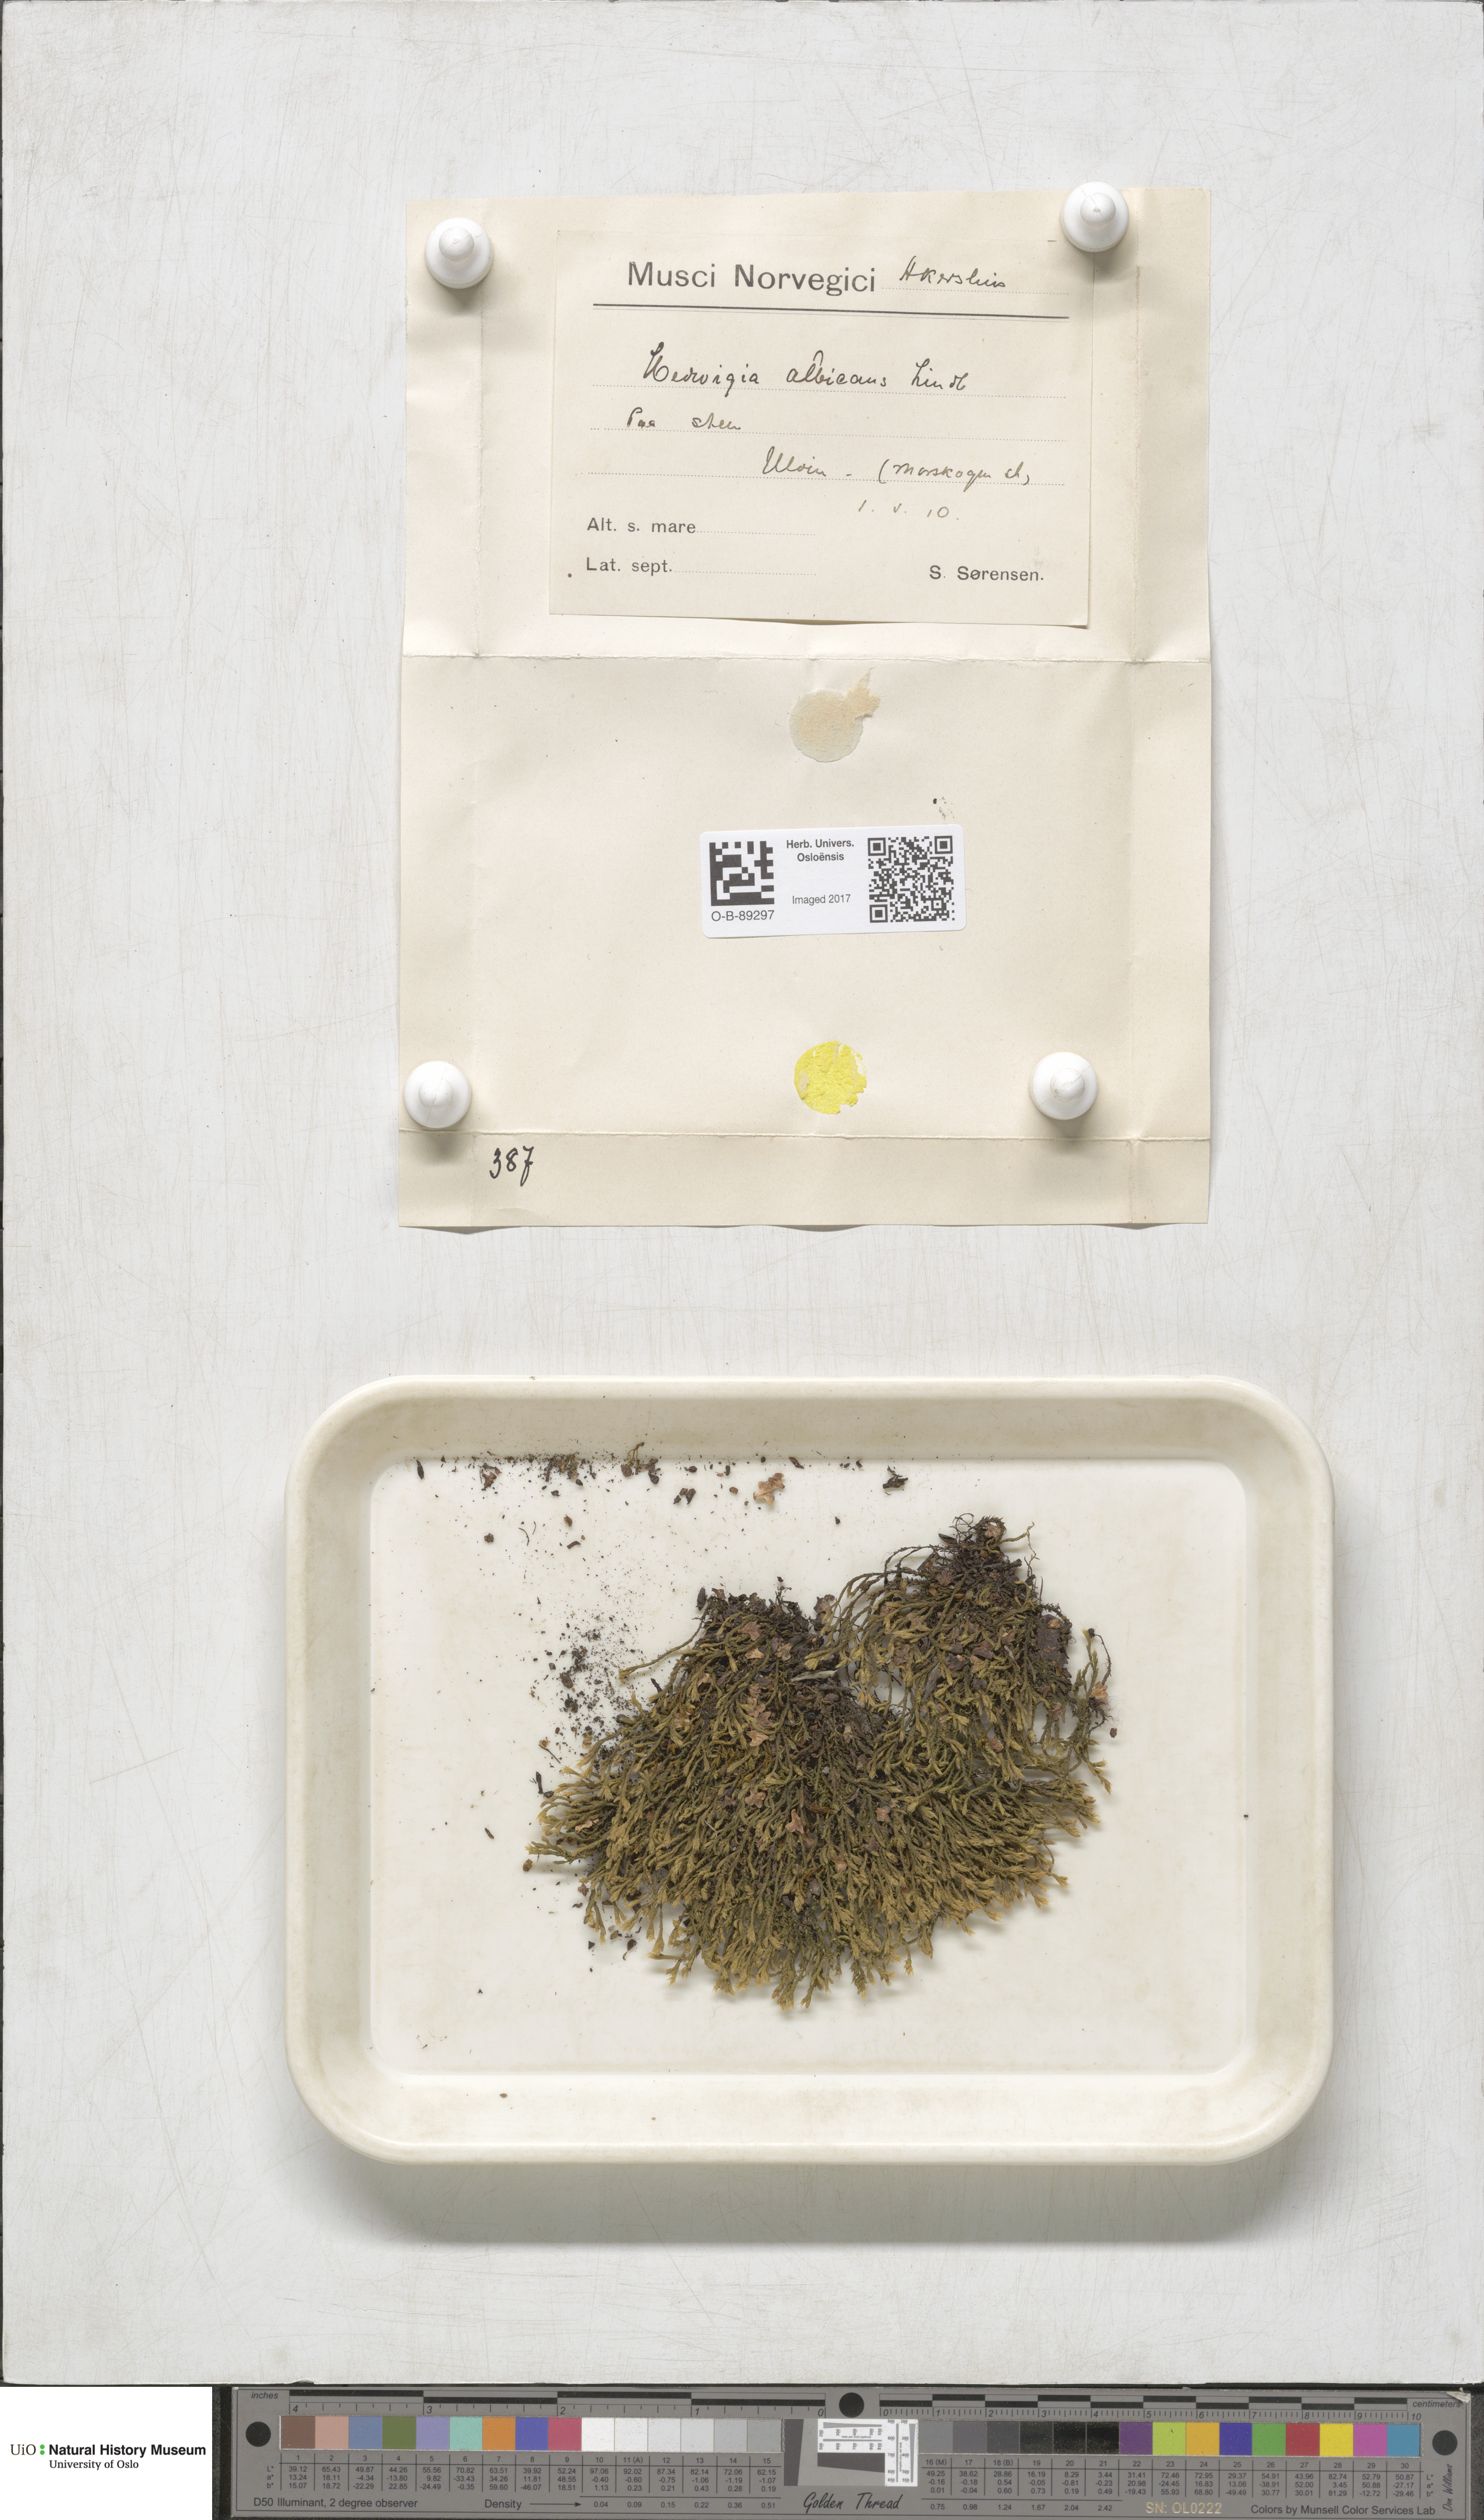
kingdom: Plantae
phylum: Bryophyta
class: Bryopsida
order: Hedwigiales
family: Hedwigiaceae
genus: Hedwigia
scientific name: Hedwigia ciliata
